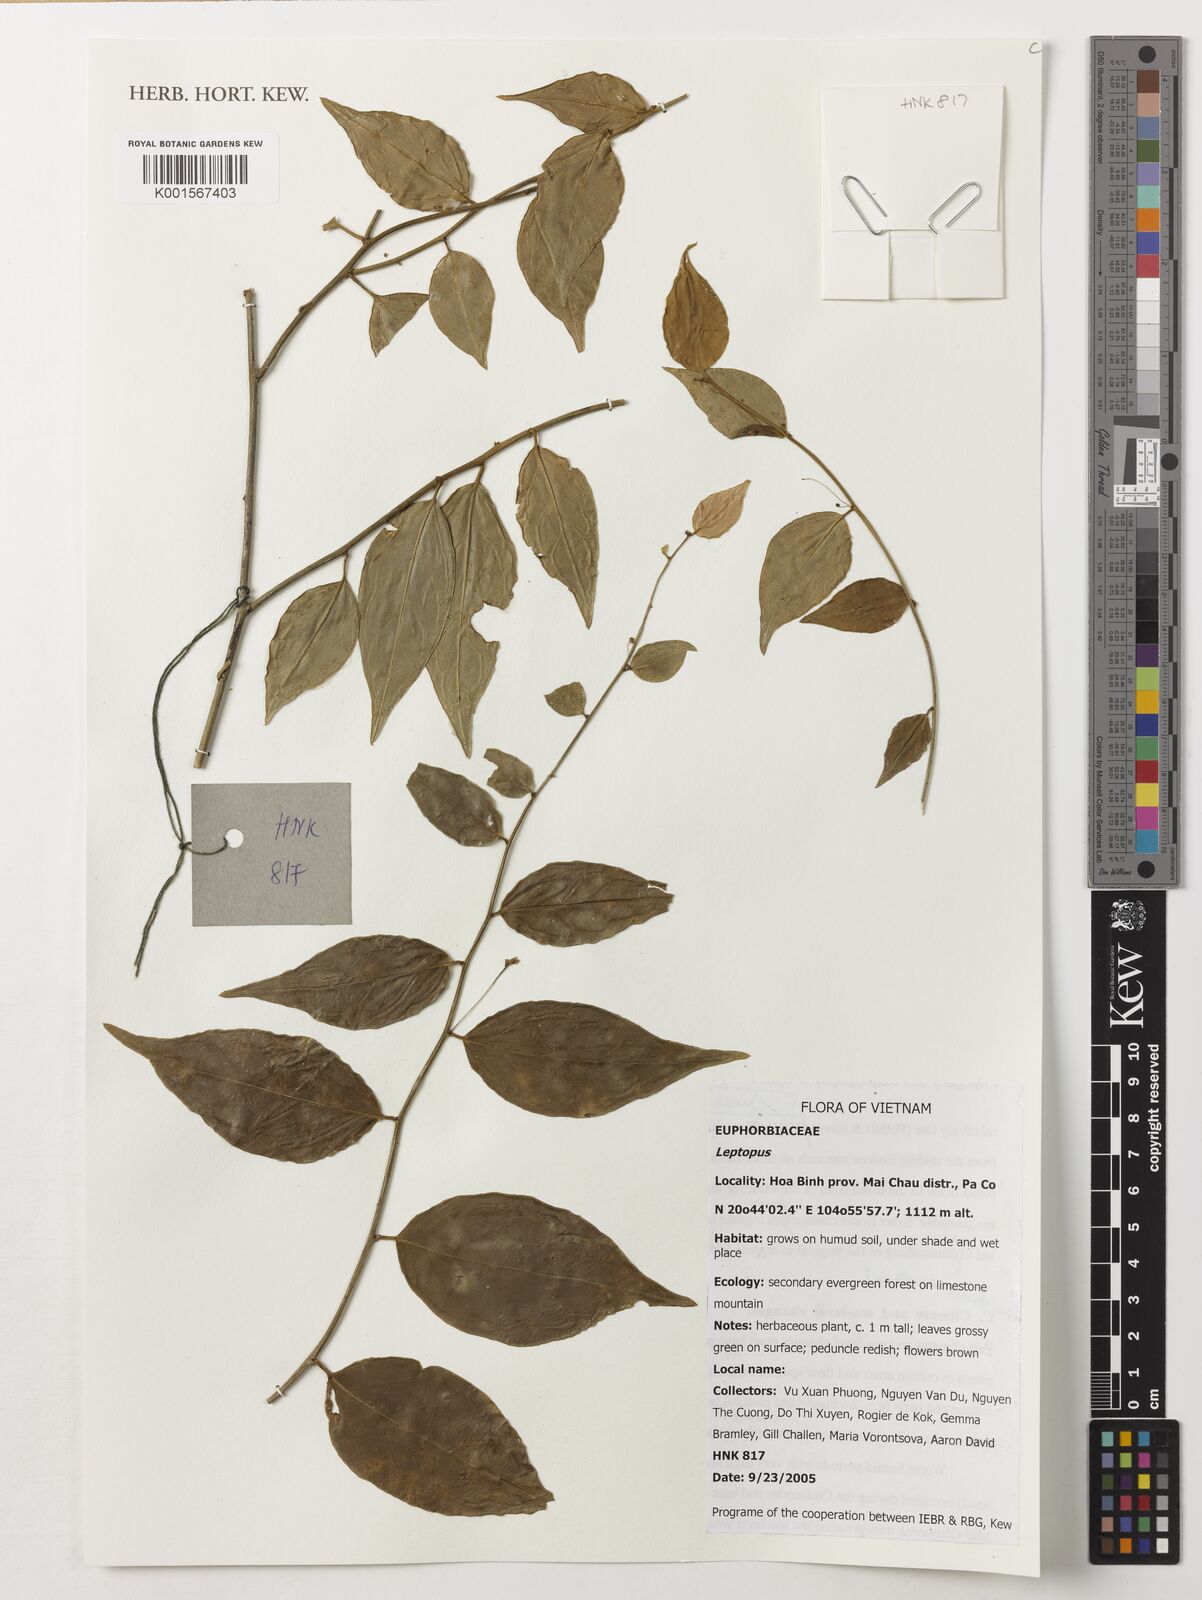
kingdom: Plantae
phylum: Tracheophyta
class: Magnoliopsida
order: Malpighiales
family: Phyllanthaceae
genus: Leptopus
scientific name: Leptopus
